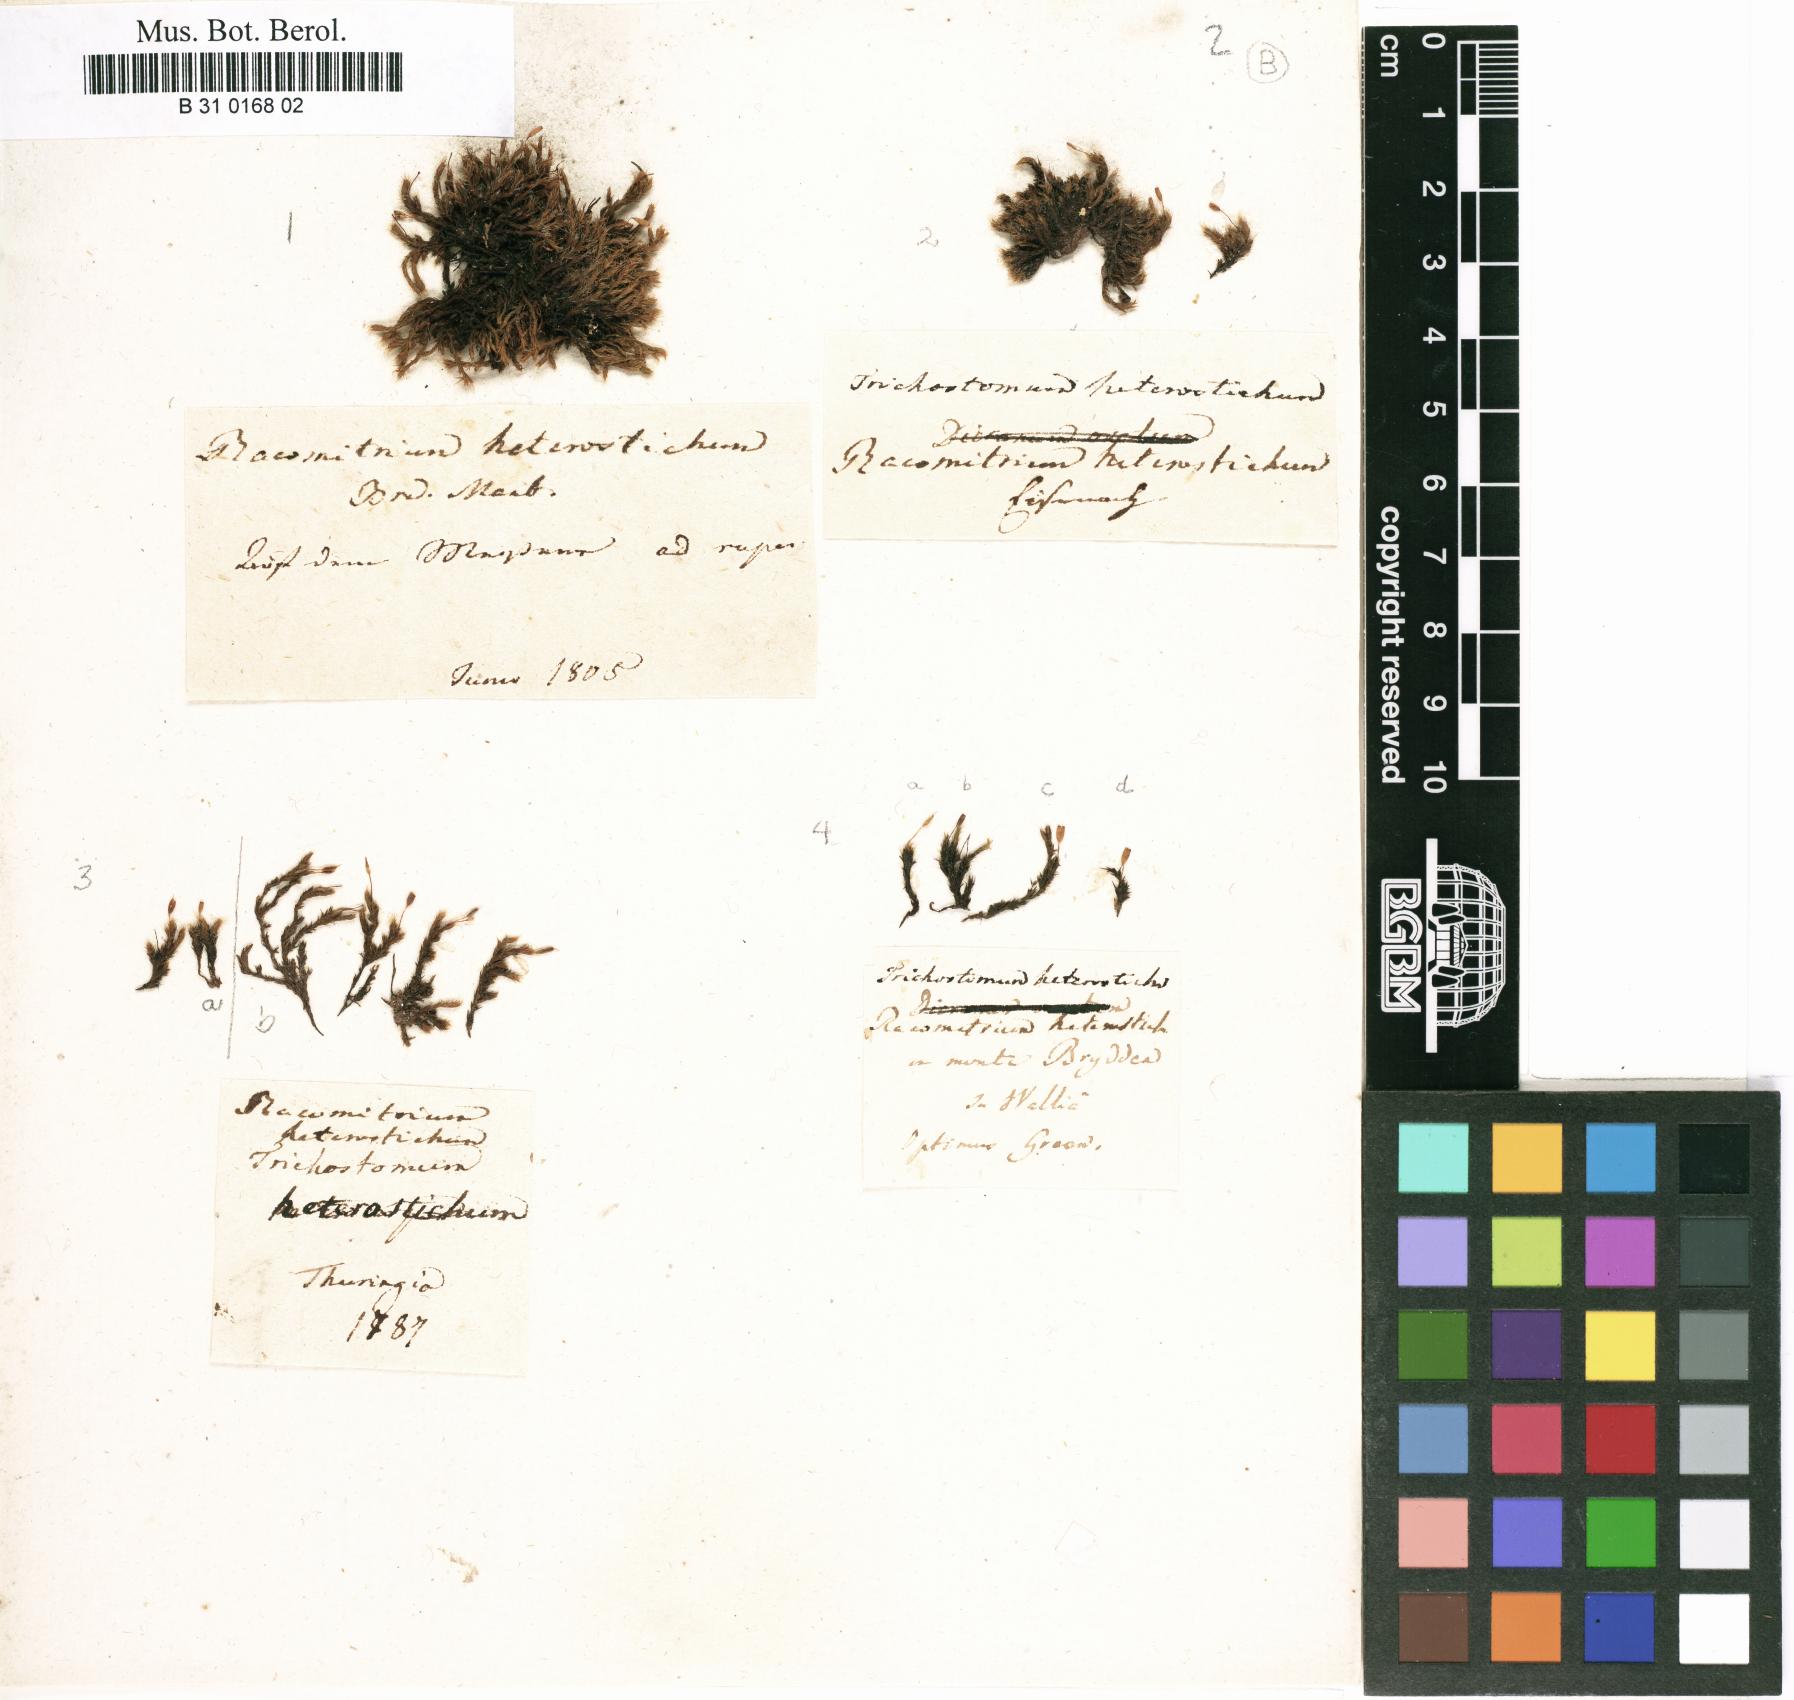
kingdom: Plantae
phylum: Bryophyta
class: Bryopsida
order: Grimmiales
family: Grimmiaceae
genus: Bucklandiella
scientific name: Bucklandiella heterosticha
